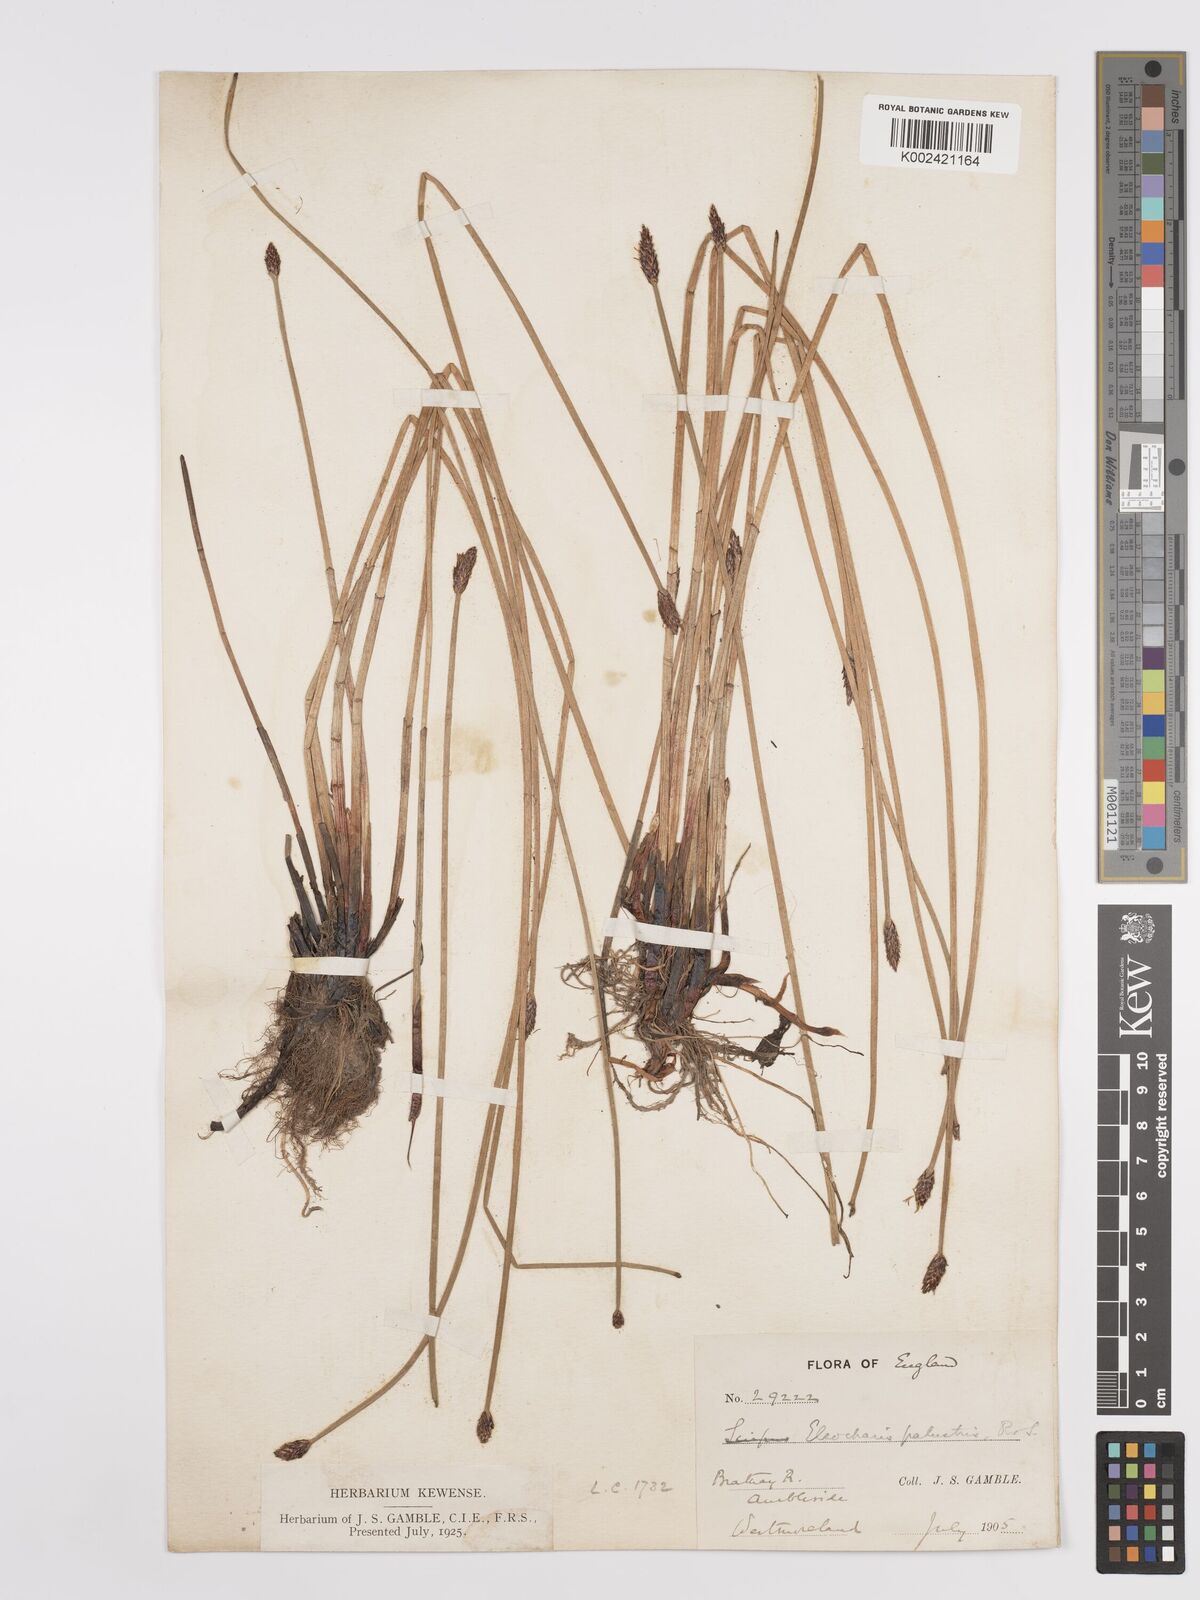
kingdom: Plantae
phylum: Tracheophyta
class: Liliopsida
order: Poales
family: Cyperaceae
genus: Eleocharis
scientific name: Eleocharis palustris
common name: Common spike-rush
